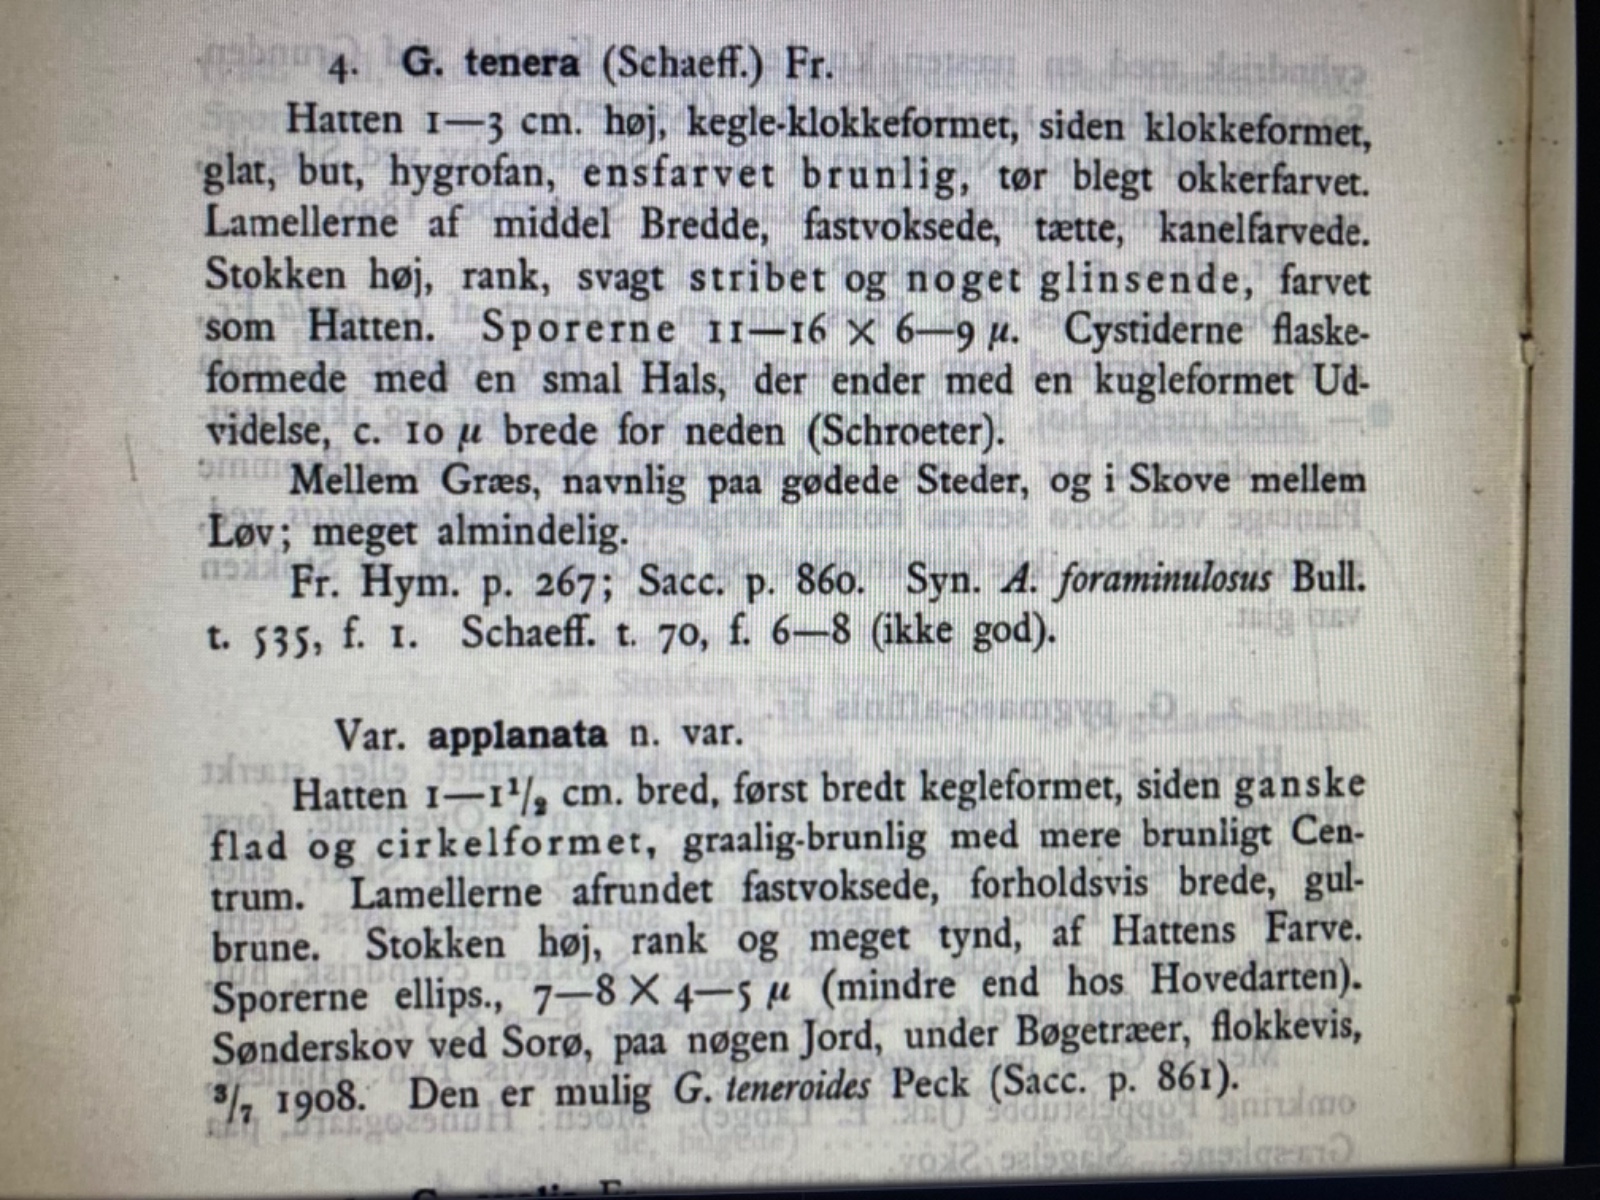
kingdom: Fungi
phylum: Basidiomycota
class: Agaricomycetes
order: Agaricales
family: Bolbitiaceae
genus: Conocybe
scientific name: Conocybe
